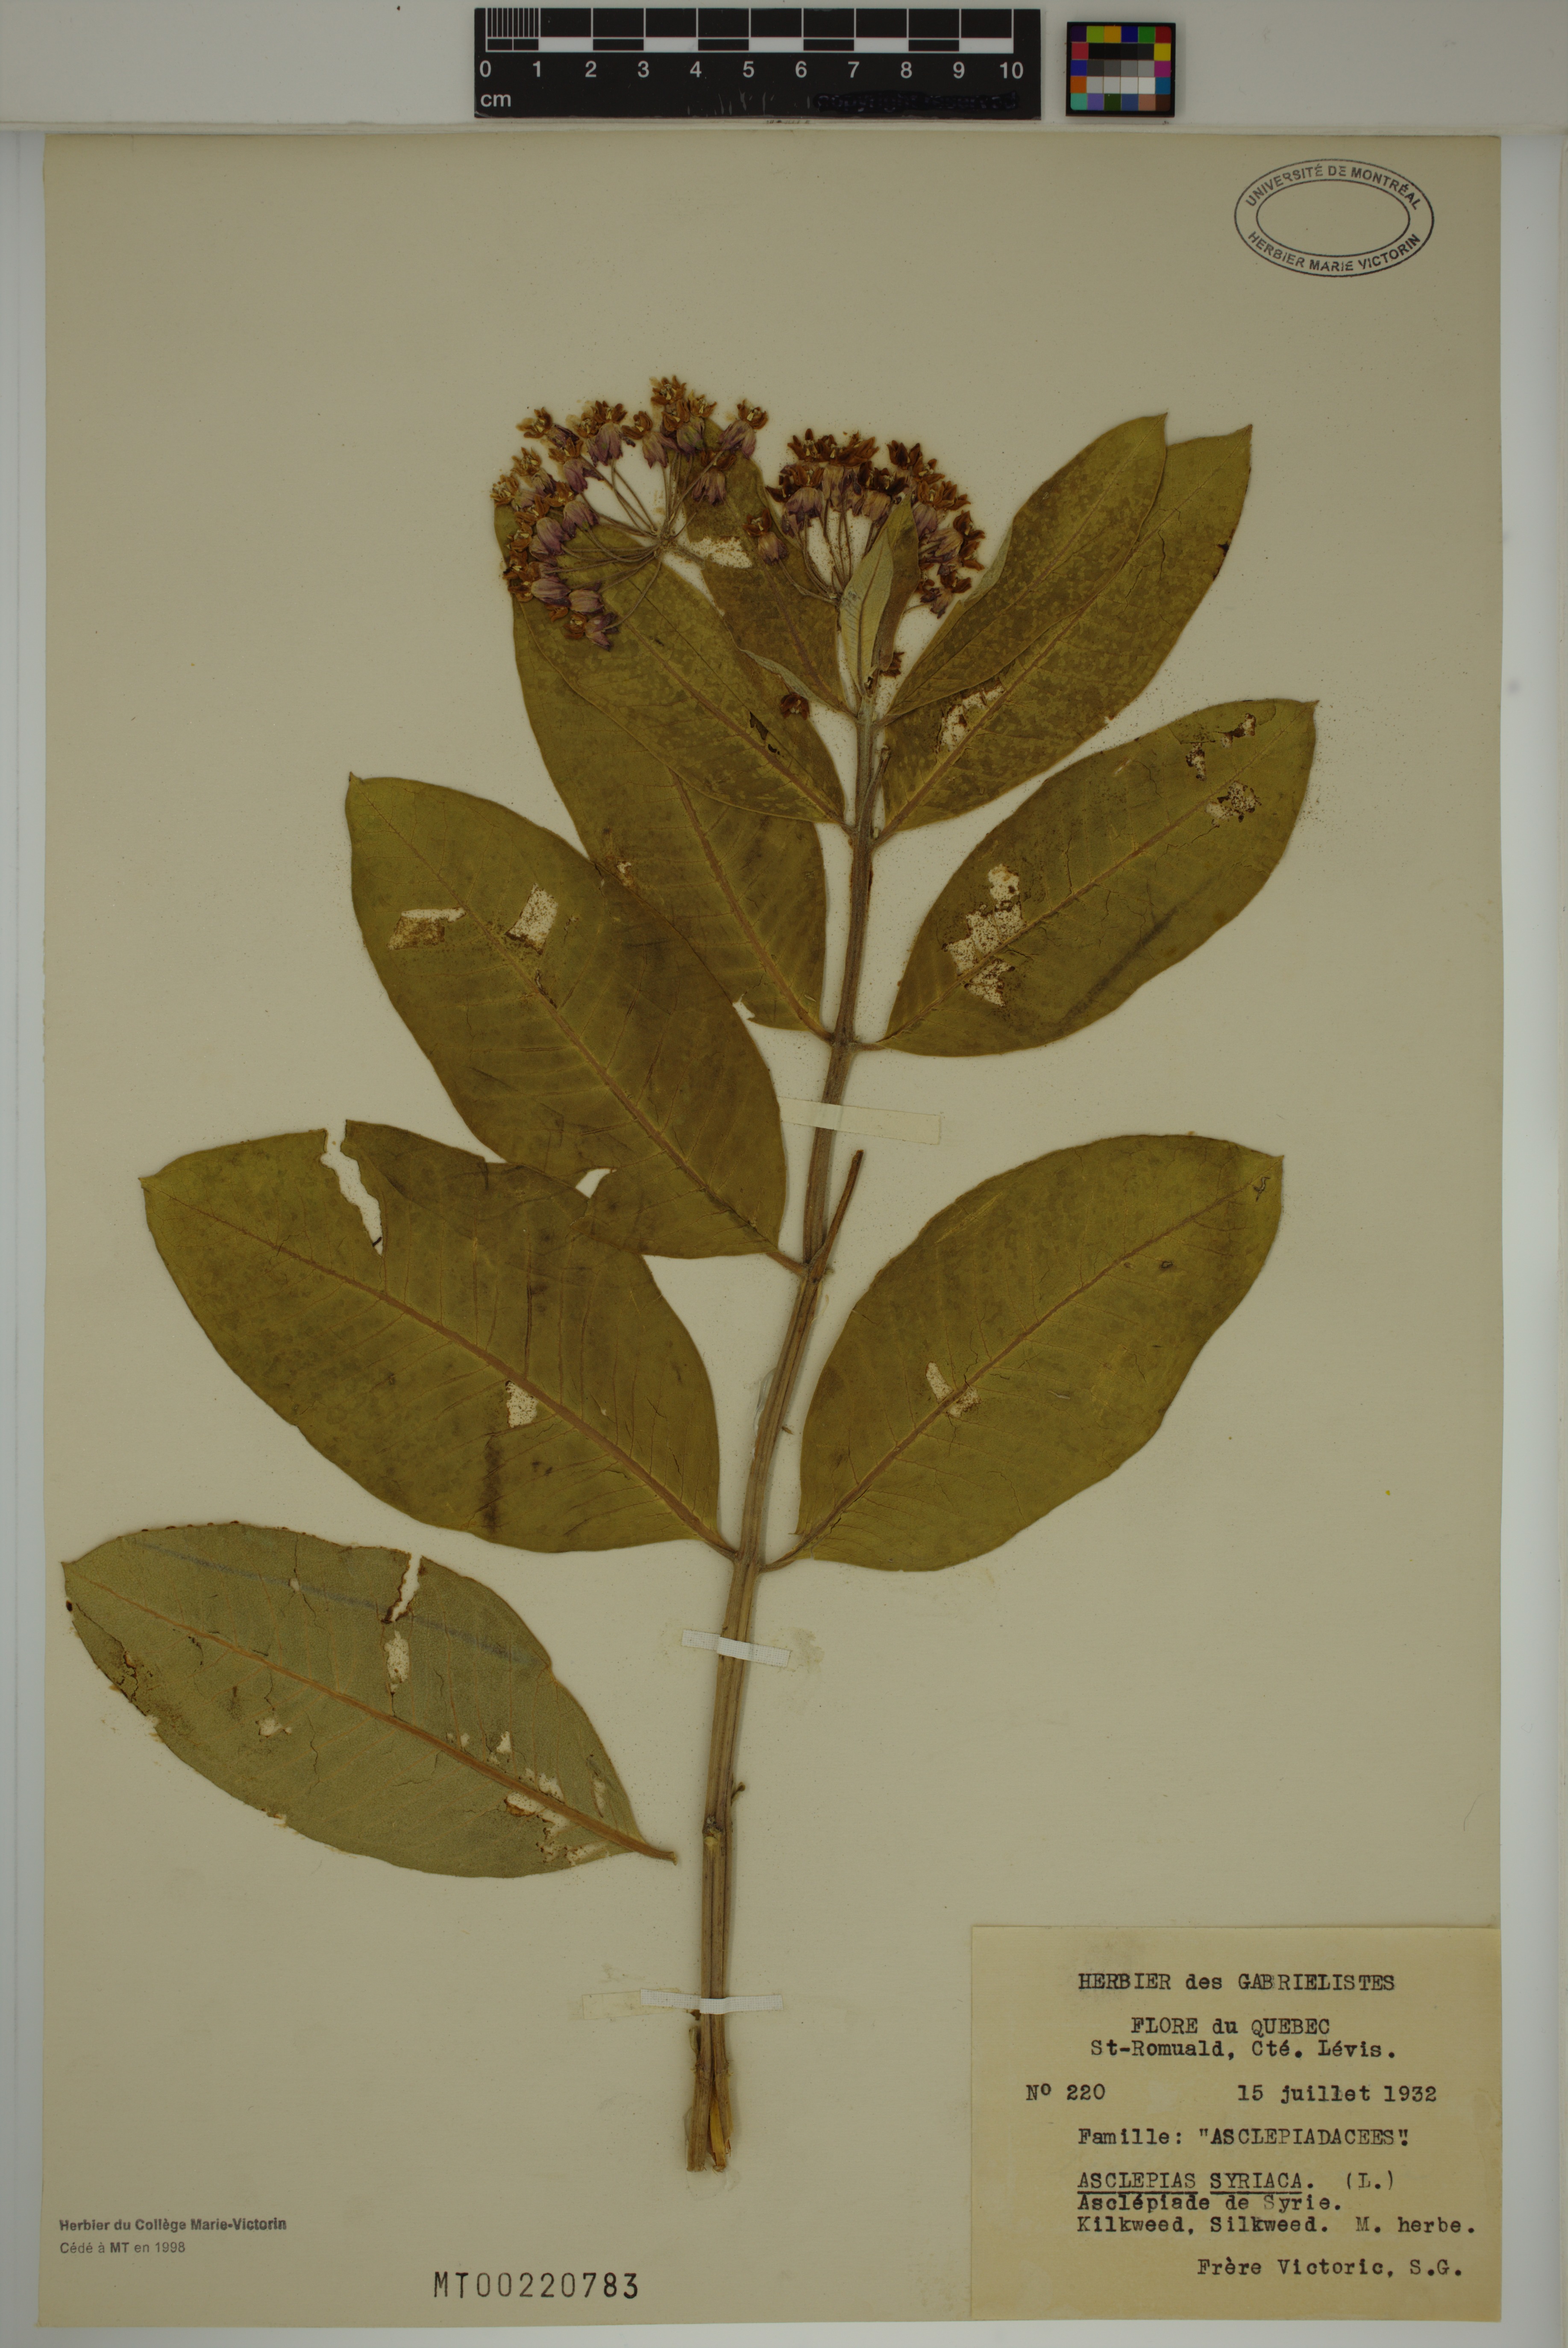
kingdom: Plantae
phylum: Tracheophyta
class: Magnoliopsida
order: Gentianales
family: Apocynaceae
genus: Asclepias
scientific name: Asclepias syriaca
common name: Common milkweed
